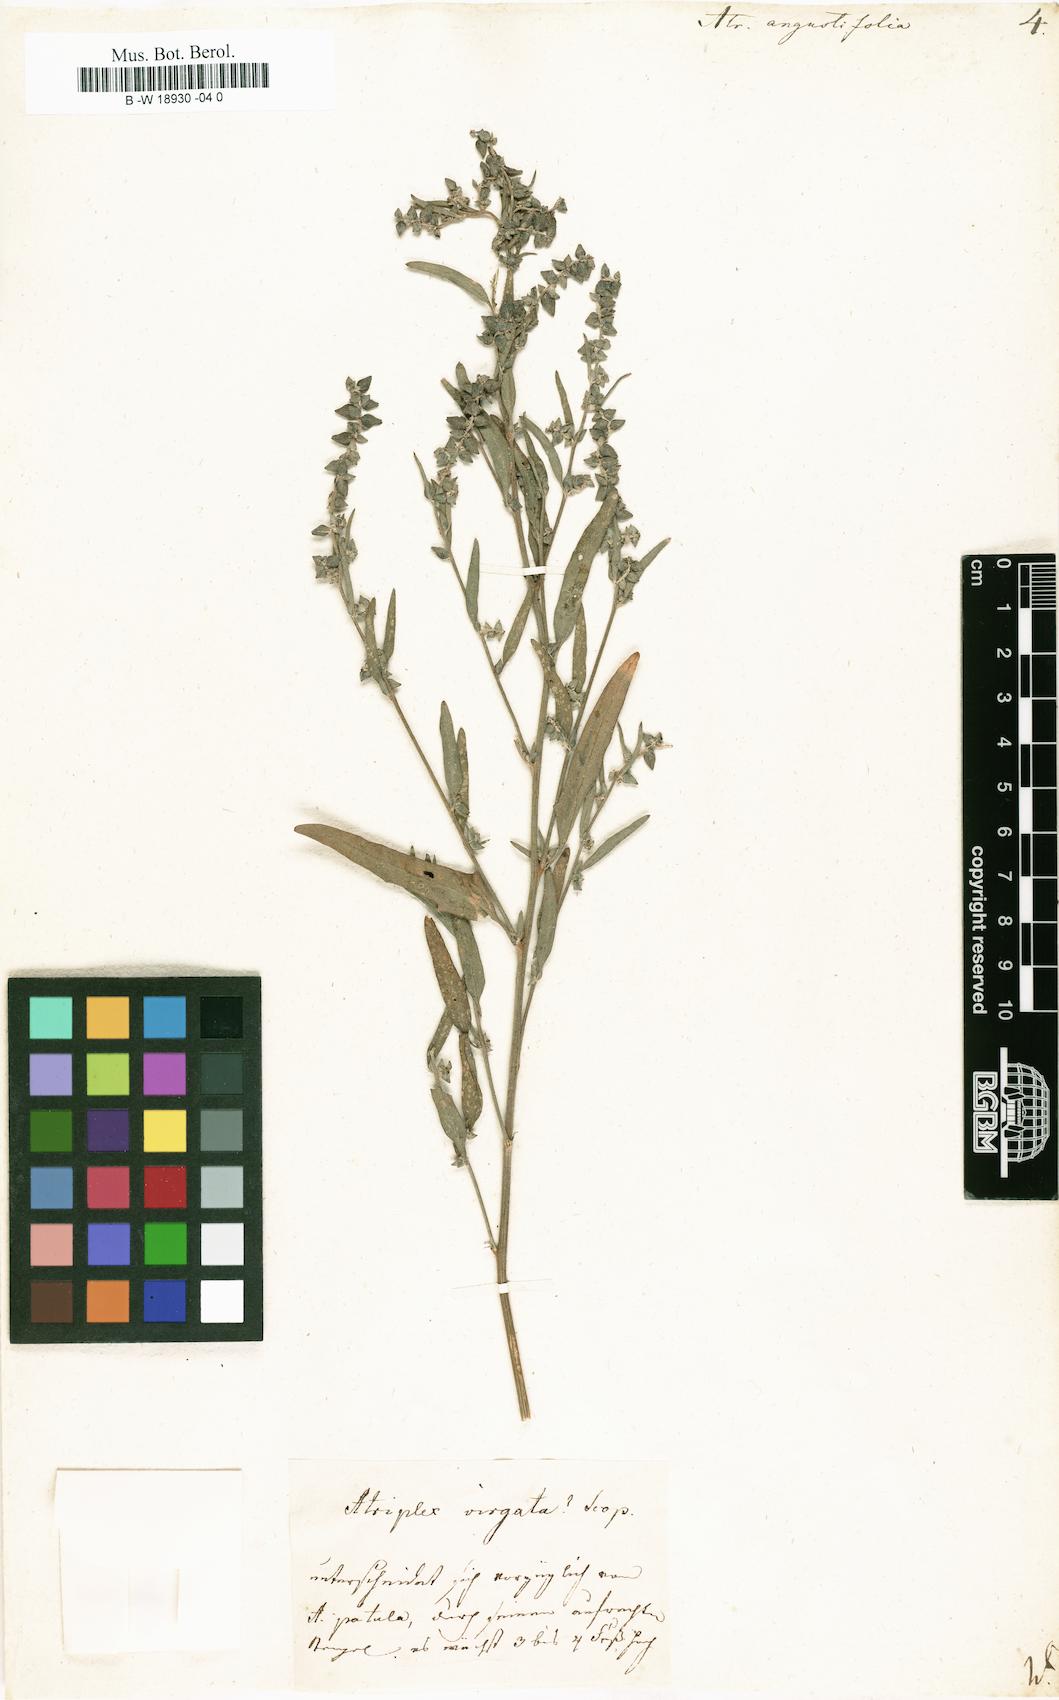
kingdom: Plantae
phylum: Tracheophyta
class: Magnoliopsida
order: Caryophyllales
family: Amaranthaceae
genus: Atriplex
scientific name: Atriplex patula
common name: Common orache
